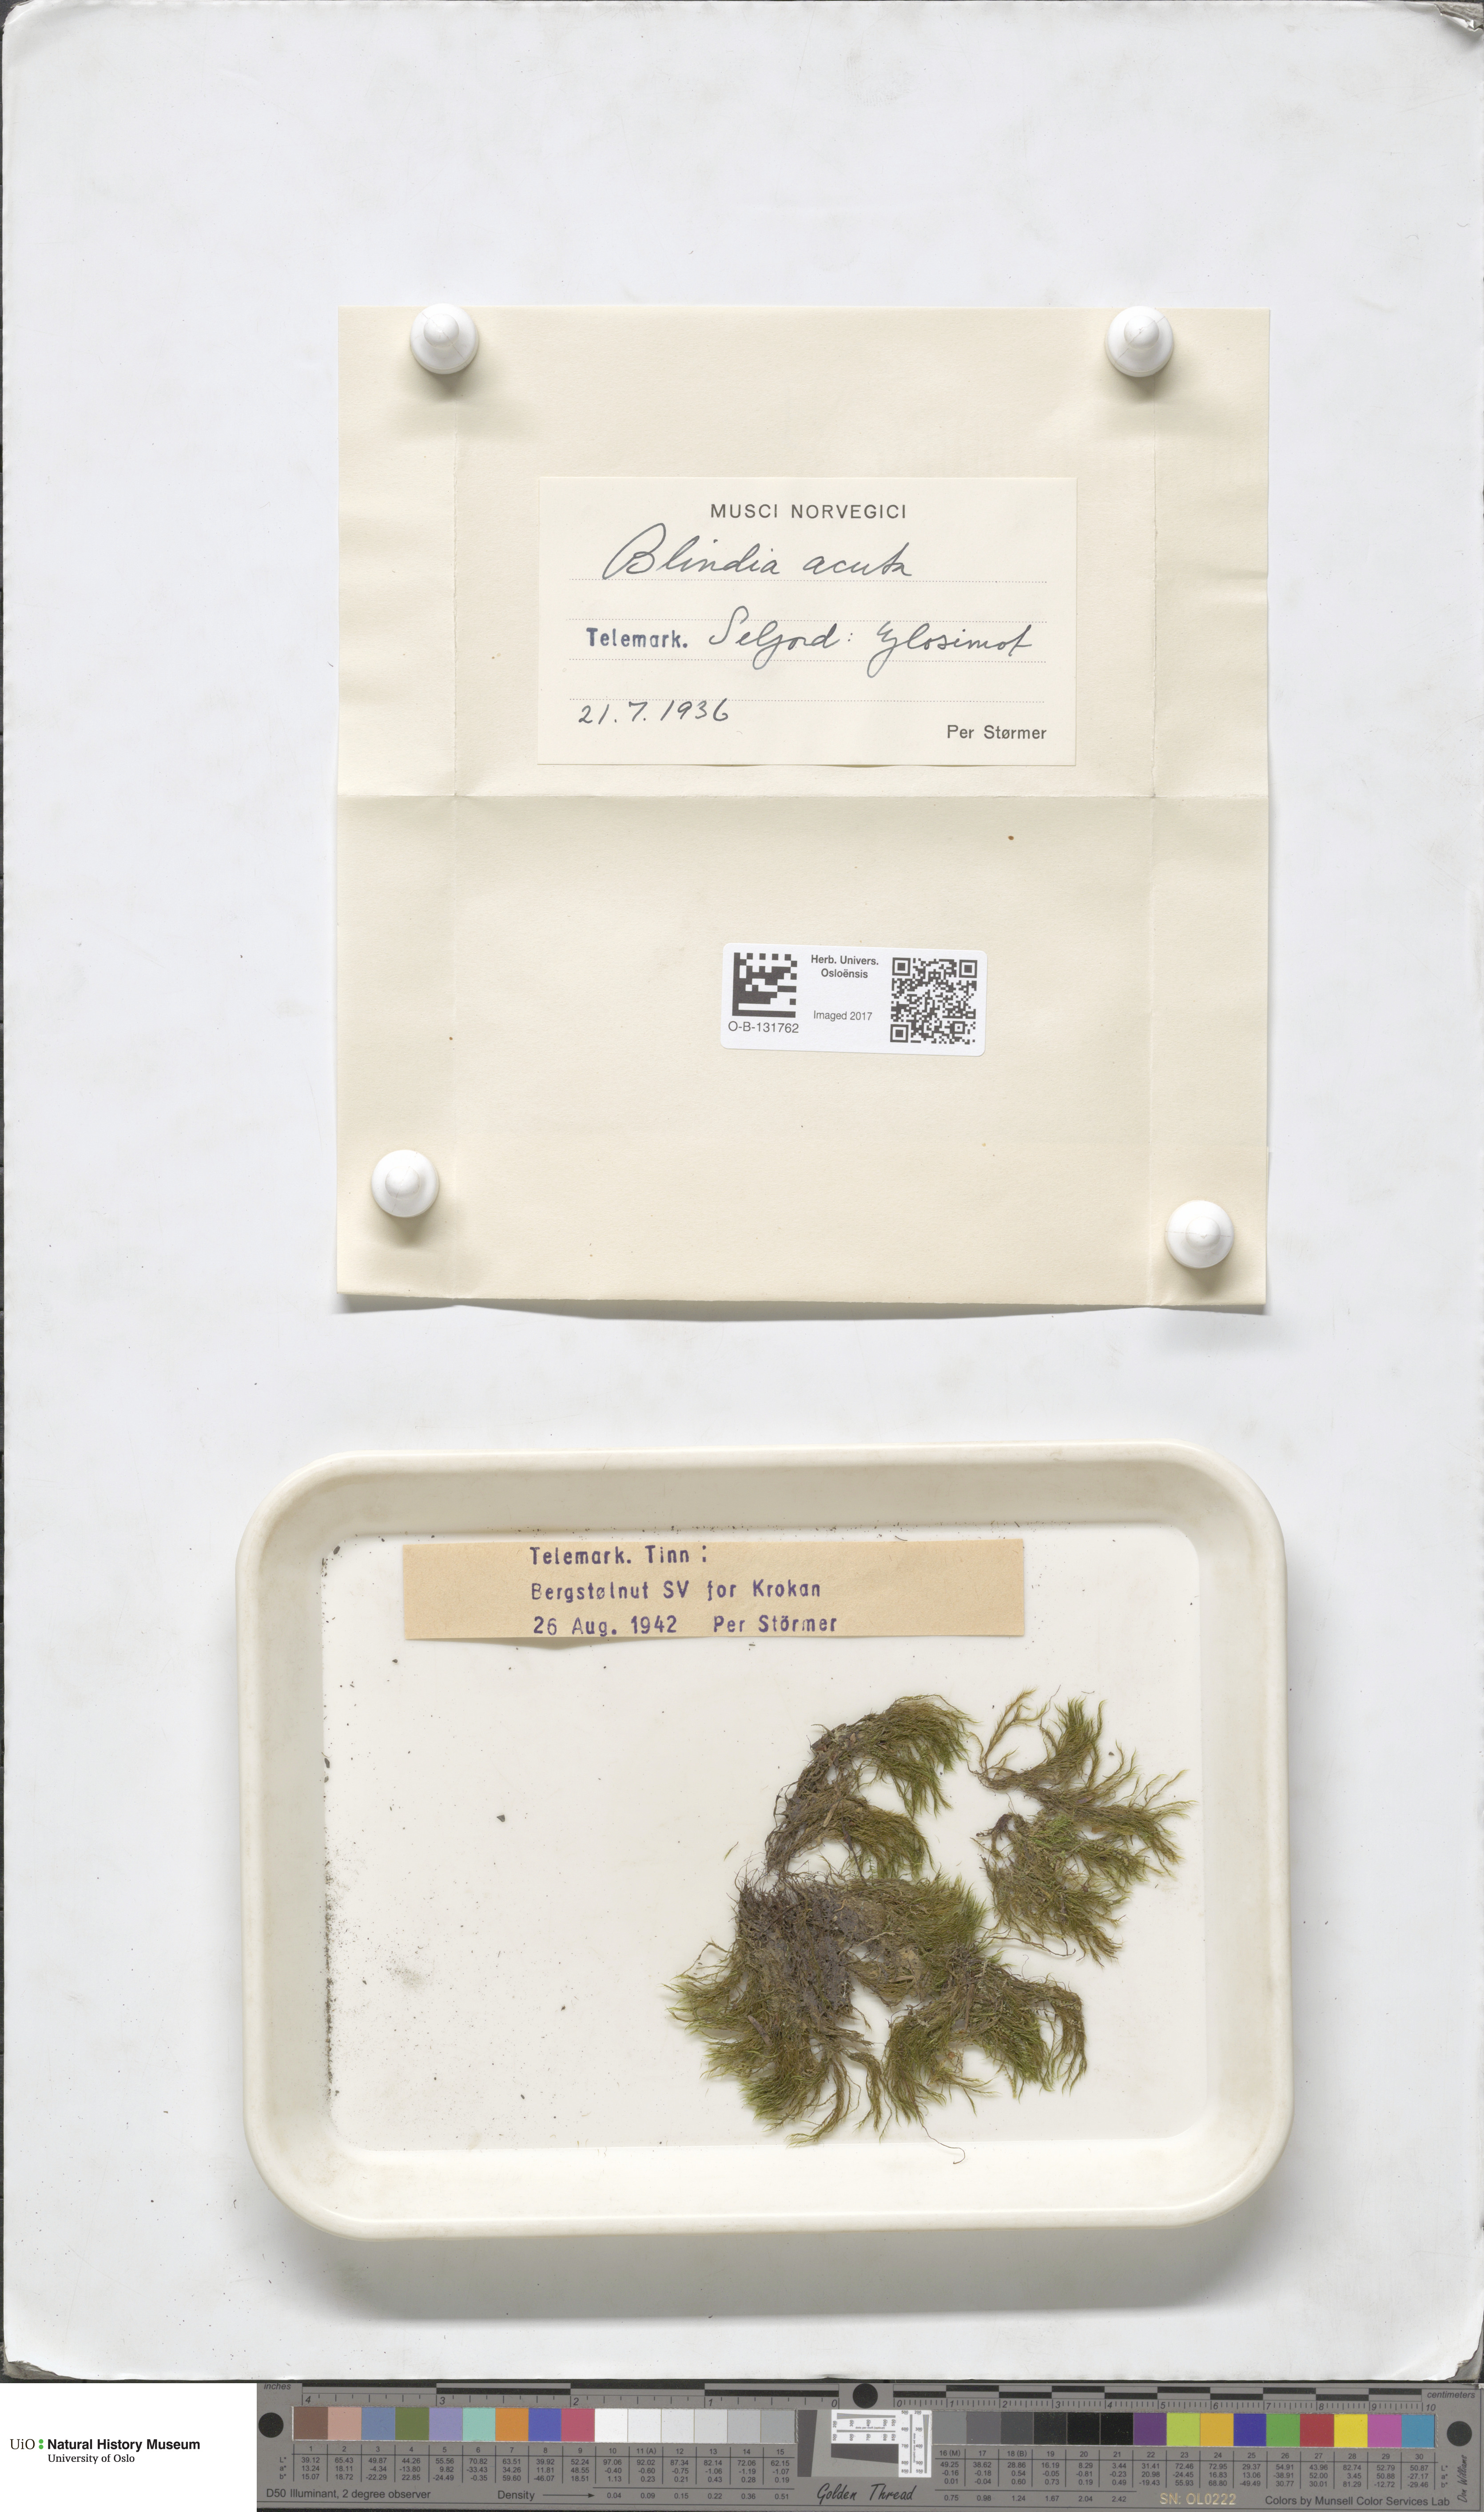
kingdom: Plantae
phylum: Bryophyta
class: Bryopsida
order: Grimmiales
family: Seligeriaceae
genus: Blindia
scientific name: Blindia acuta
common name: Sharp-leaved blind's moss
